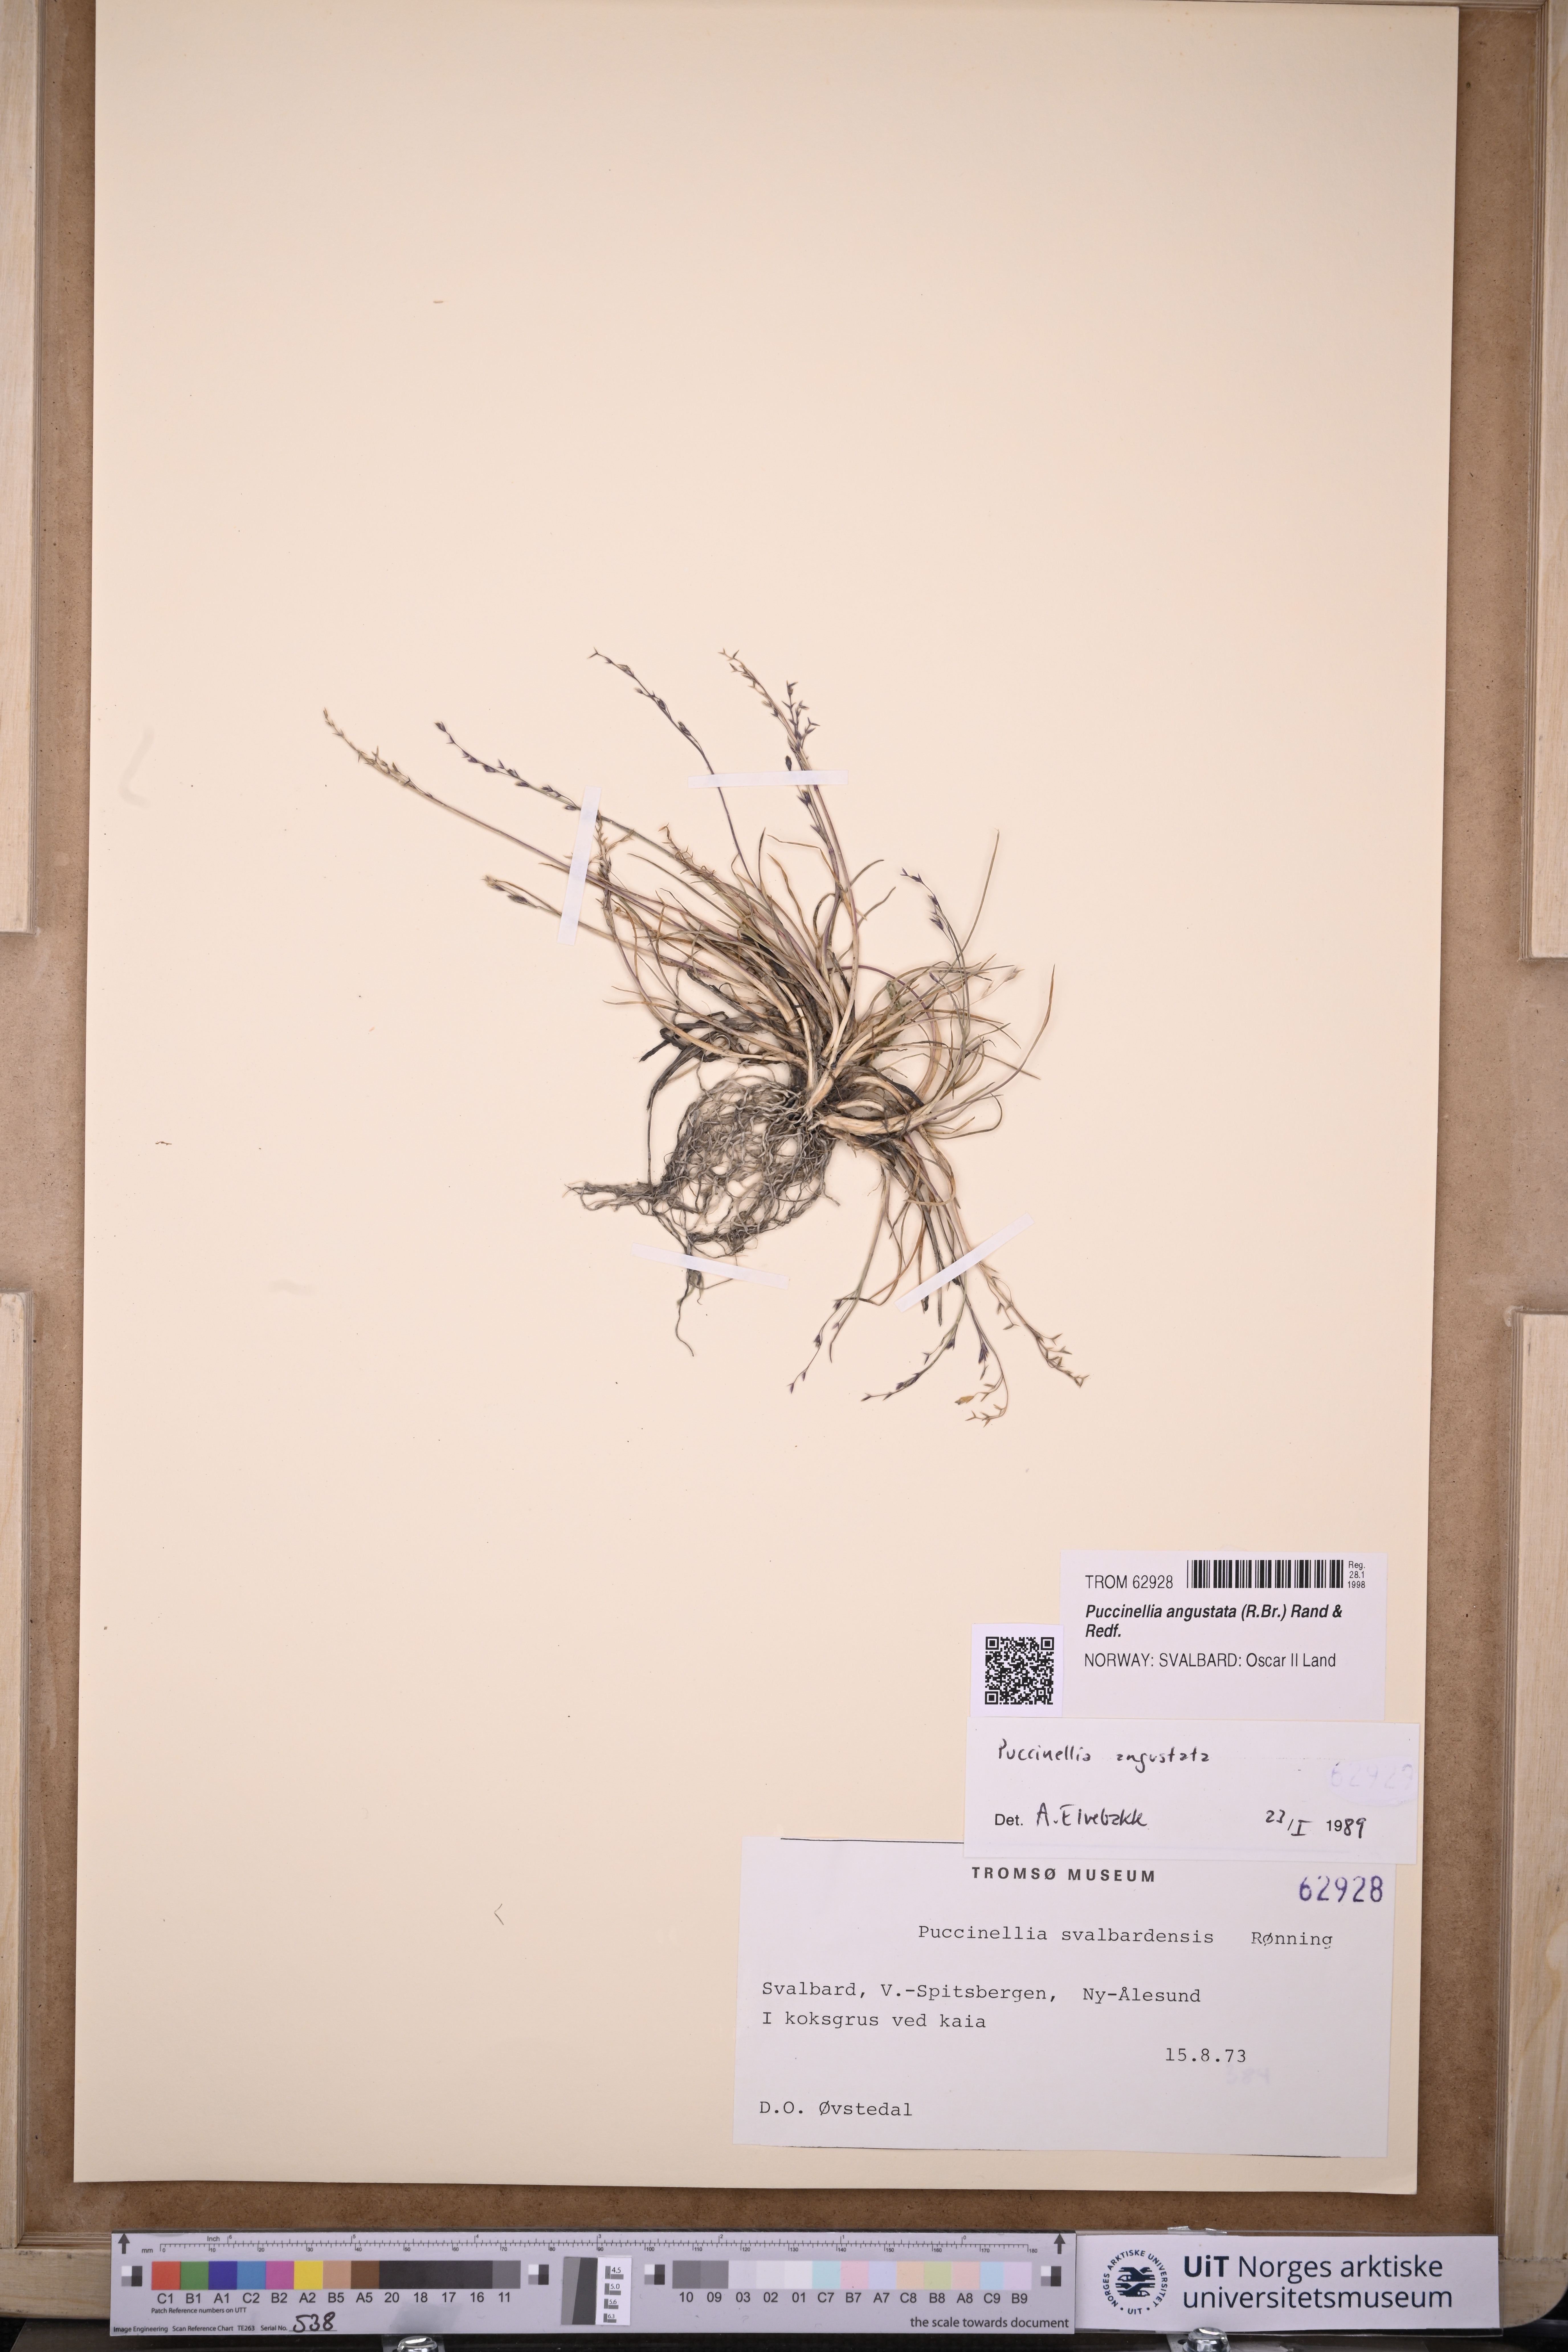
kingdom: Plantae
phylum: Tracheophyta
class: Liliopsida
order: Poales
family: Poaceae
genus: Puccinellia
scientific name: Puccinellia angustata
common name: Narrow alkaligrass
